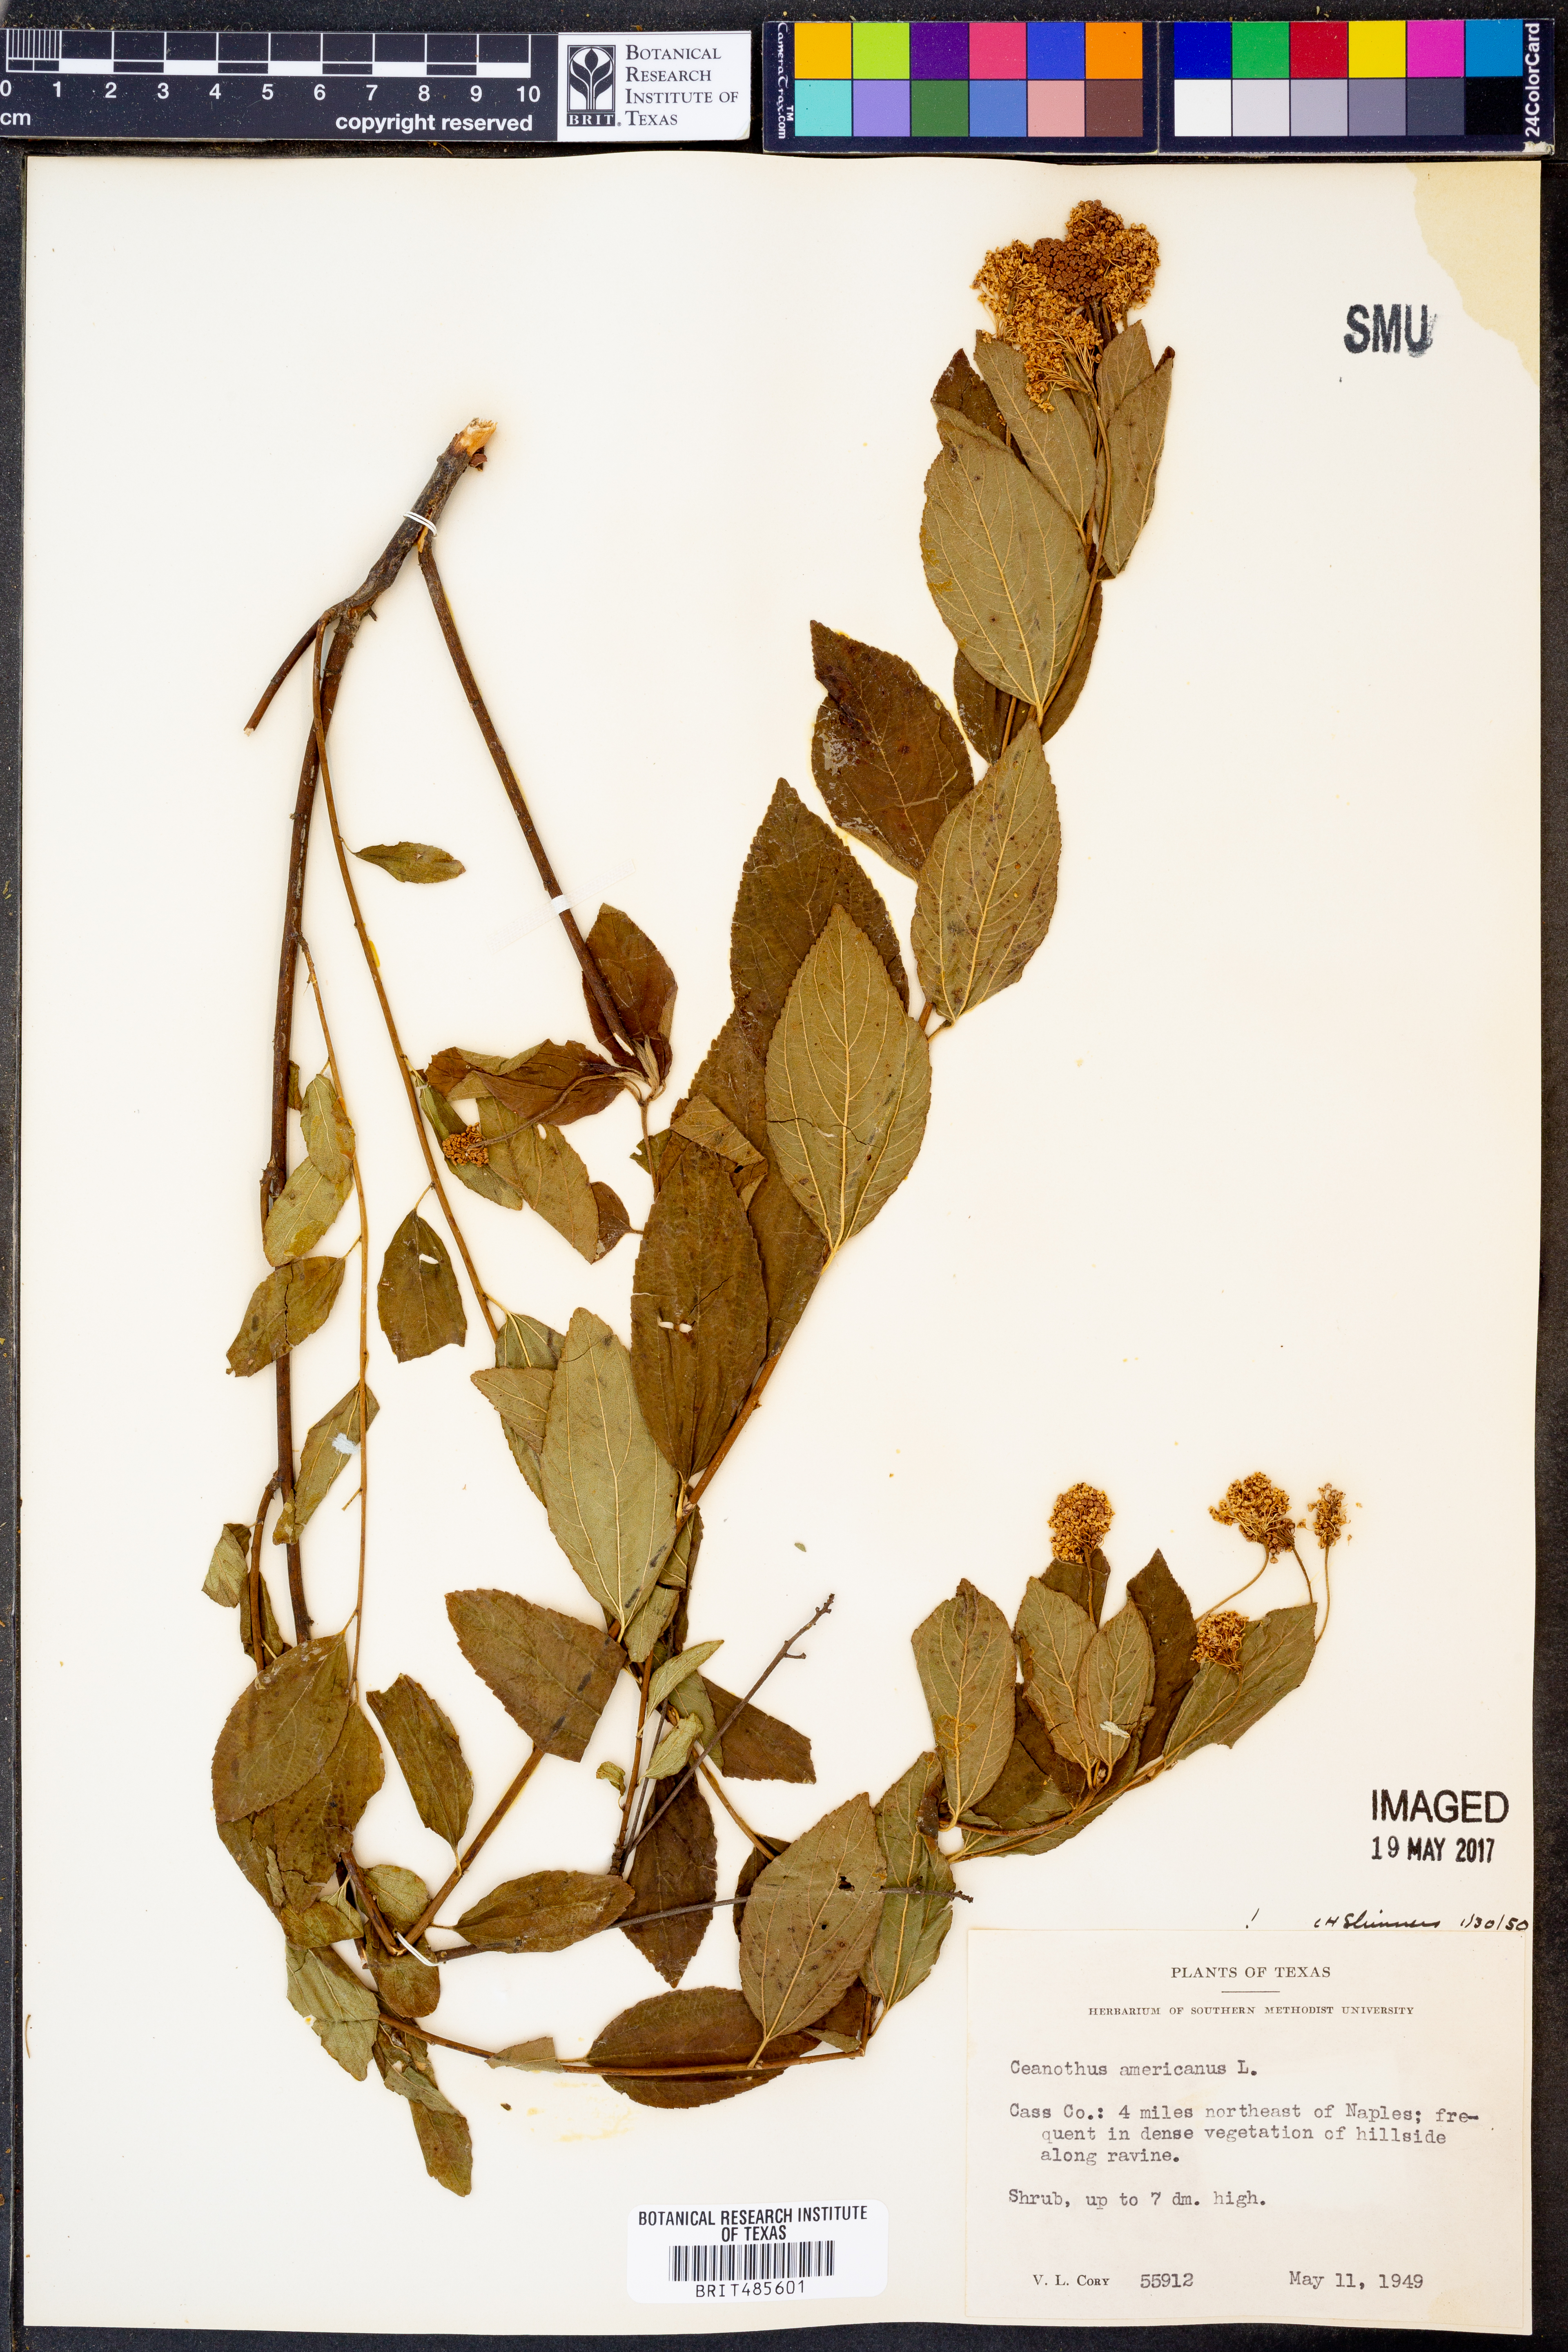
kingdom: Plantae
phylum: Tracheophyta
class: Magnoliopsida
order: Rosales
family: Rhamnaceae
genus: Ceanothus
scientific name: Ceanothus americanus
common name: Redroot
